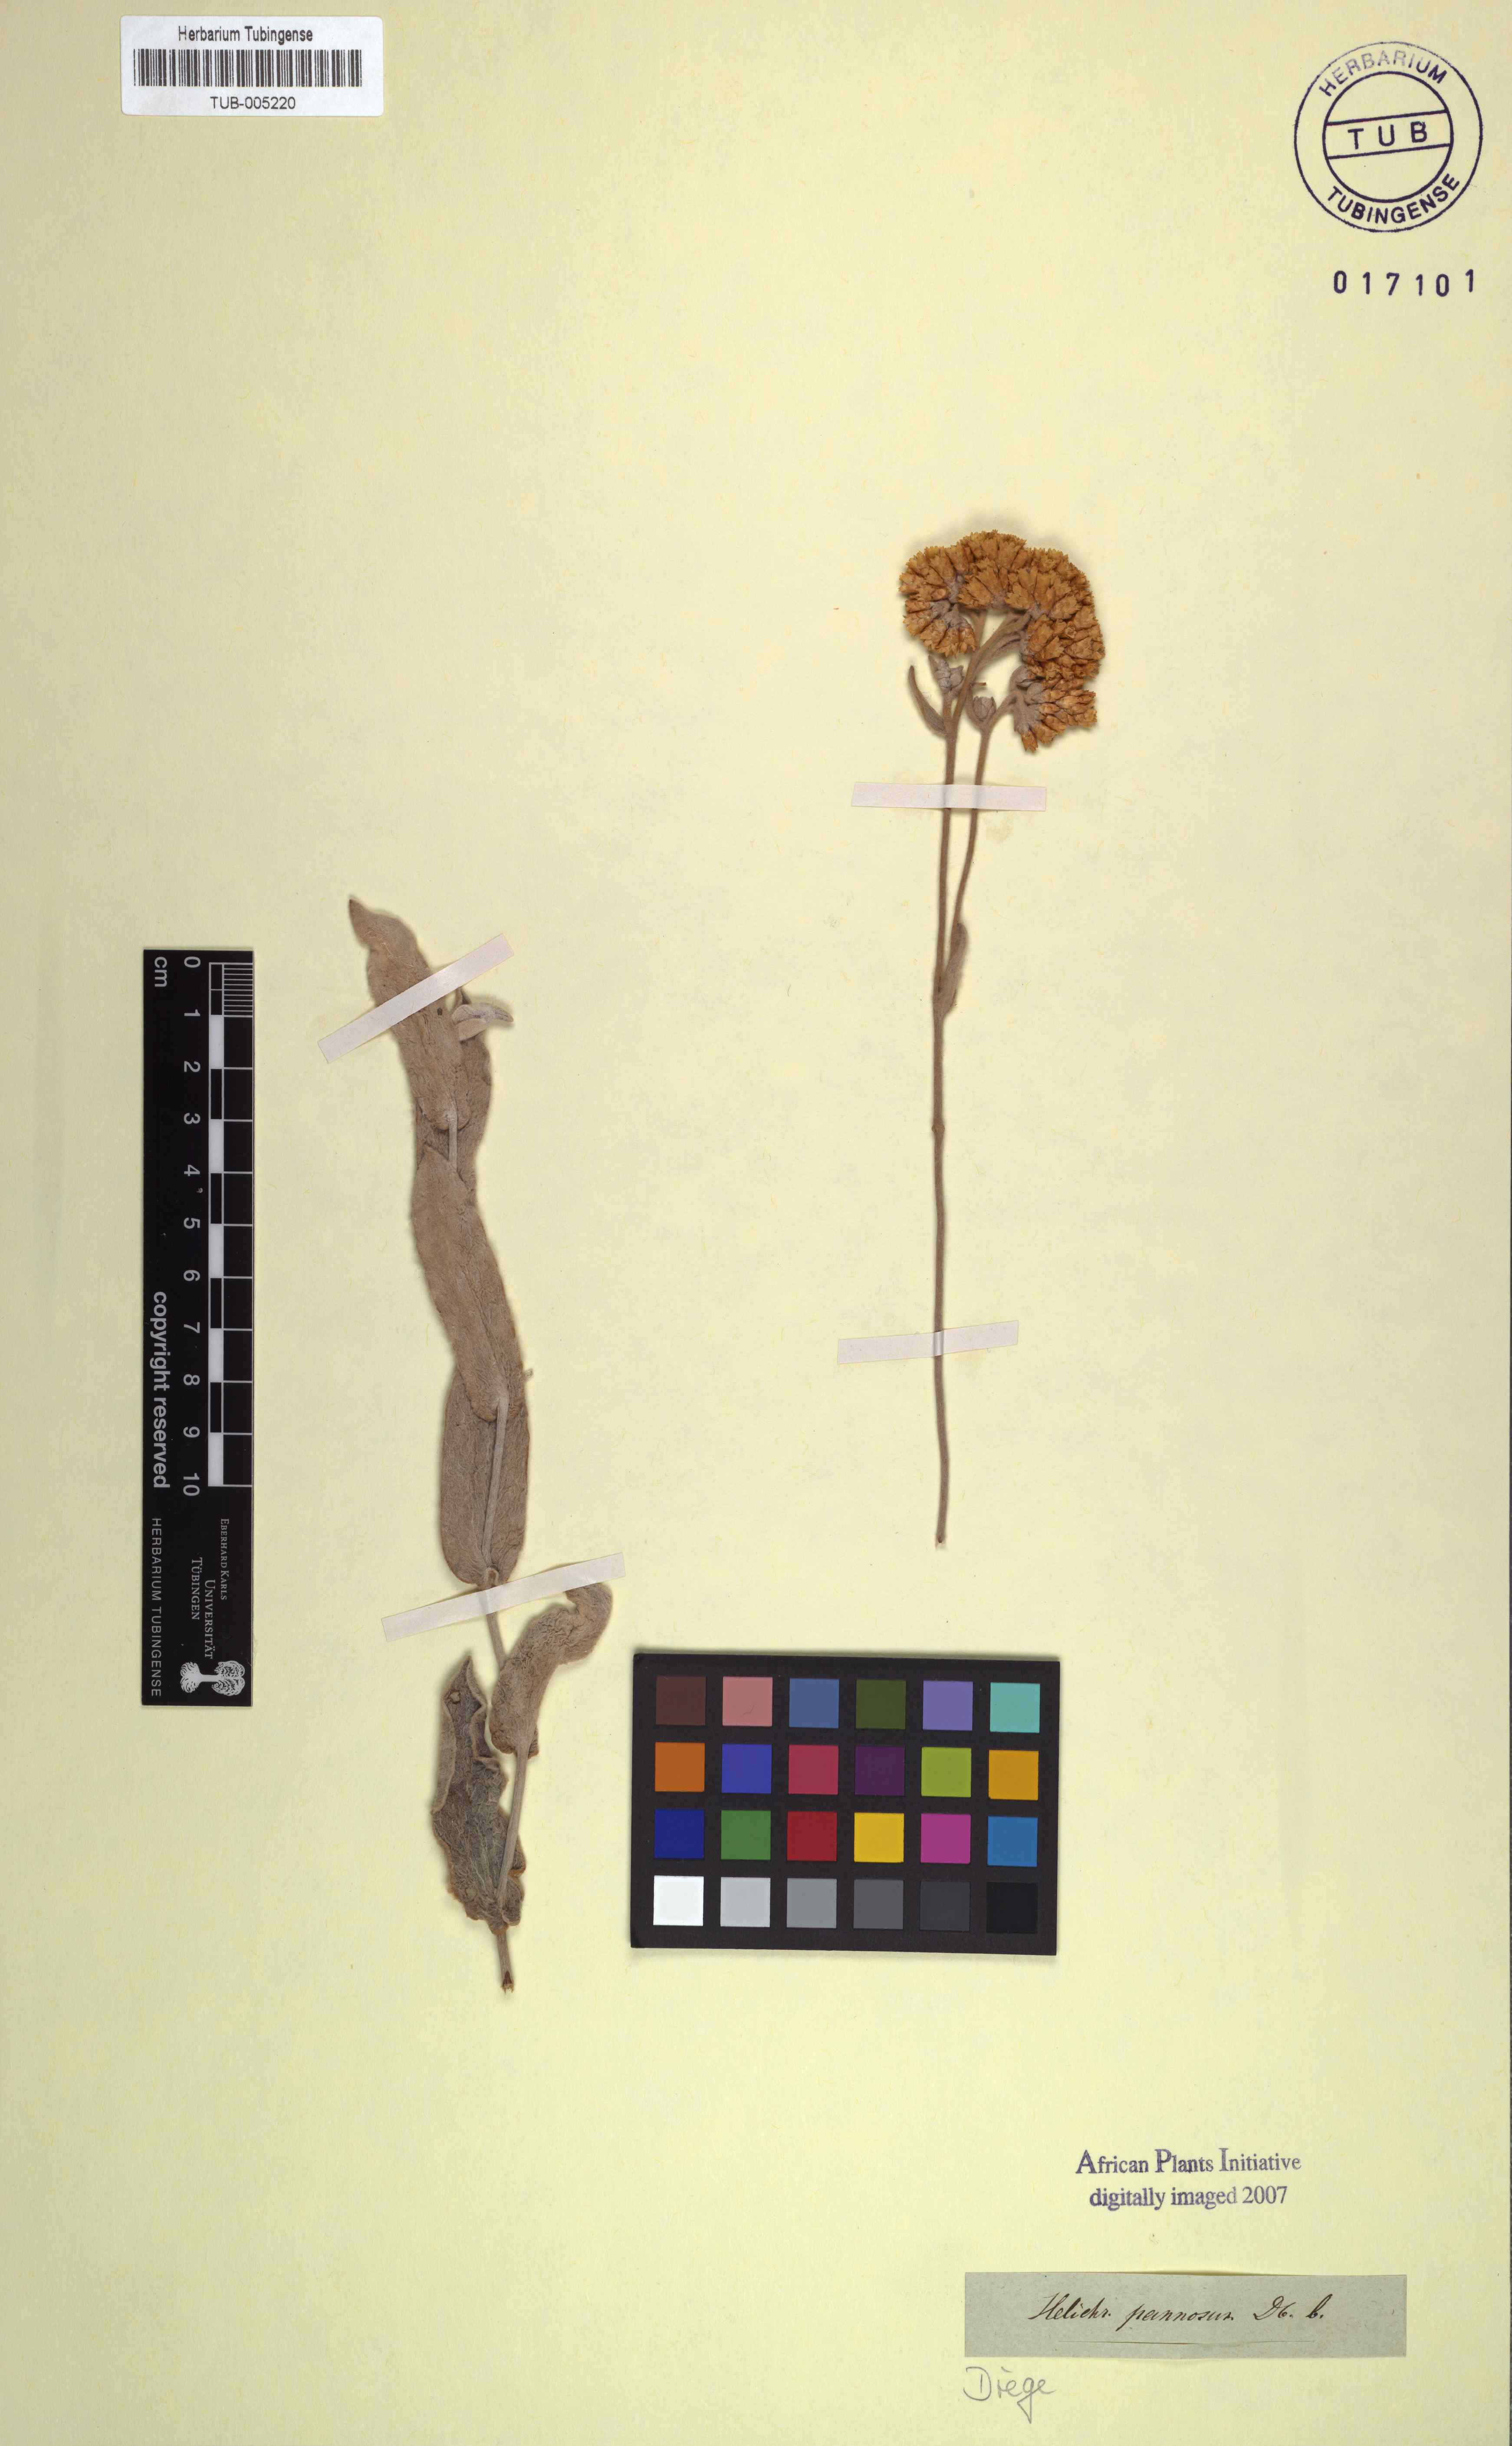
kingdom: Plantae
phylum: Tracheophyta
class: Magnoliopsida
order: Asterales
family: Asteraceae
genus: Helichrysum
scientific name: Helichrysum pannosum
